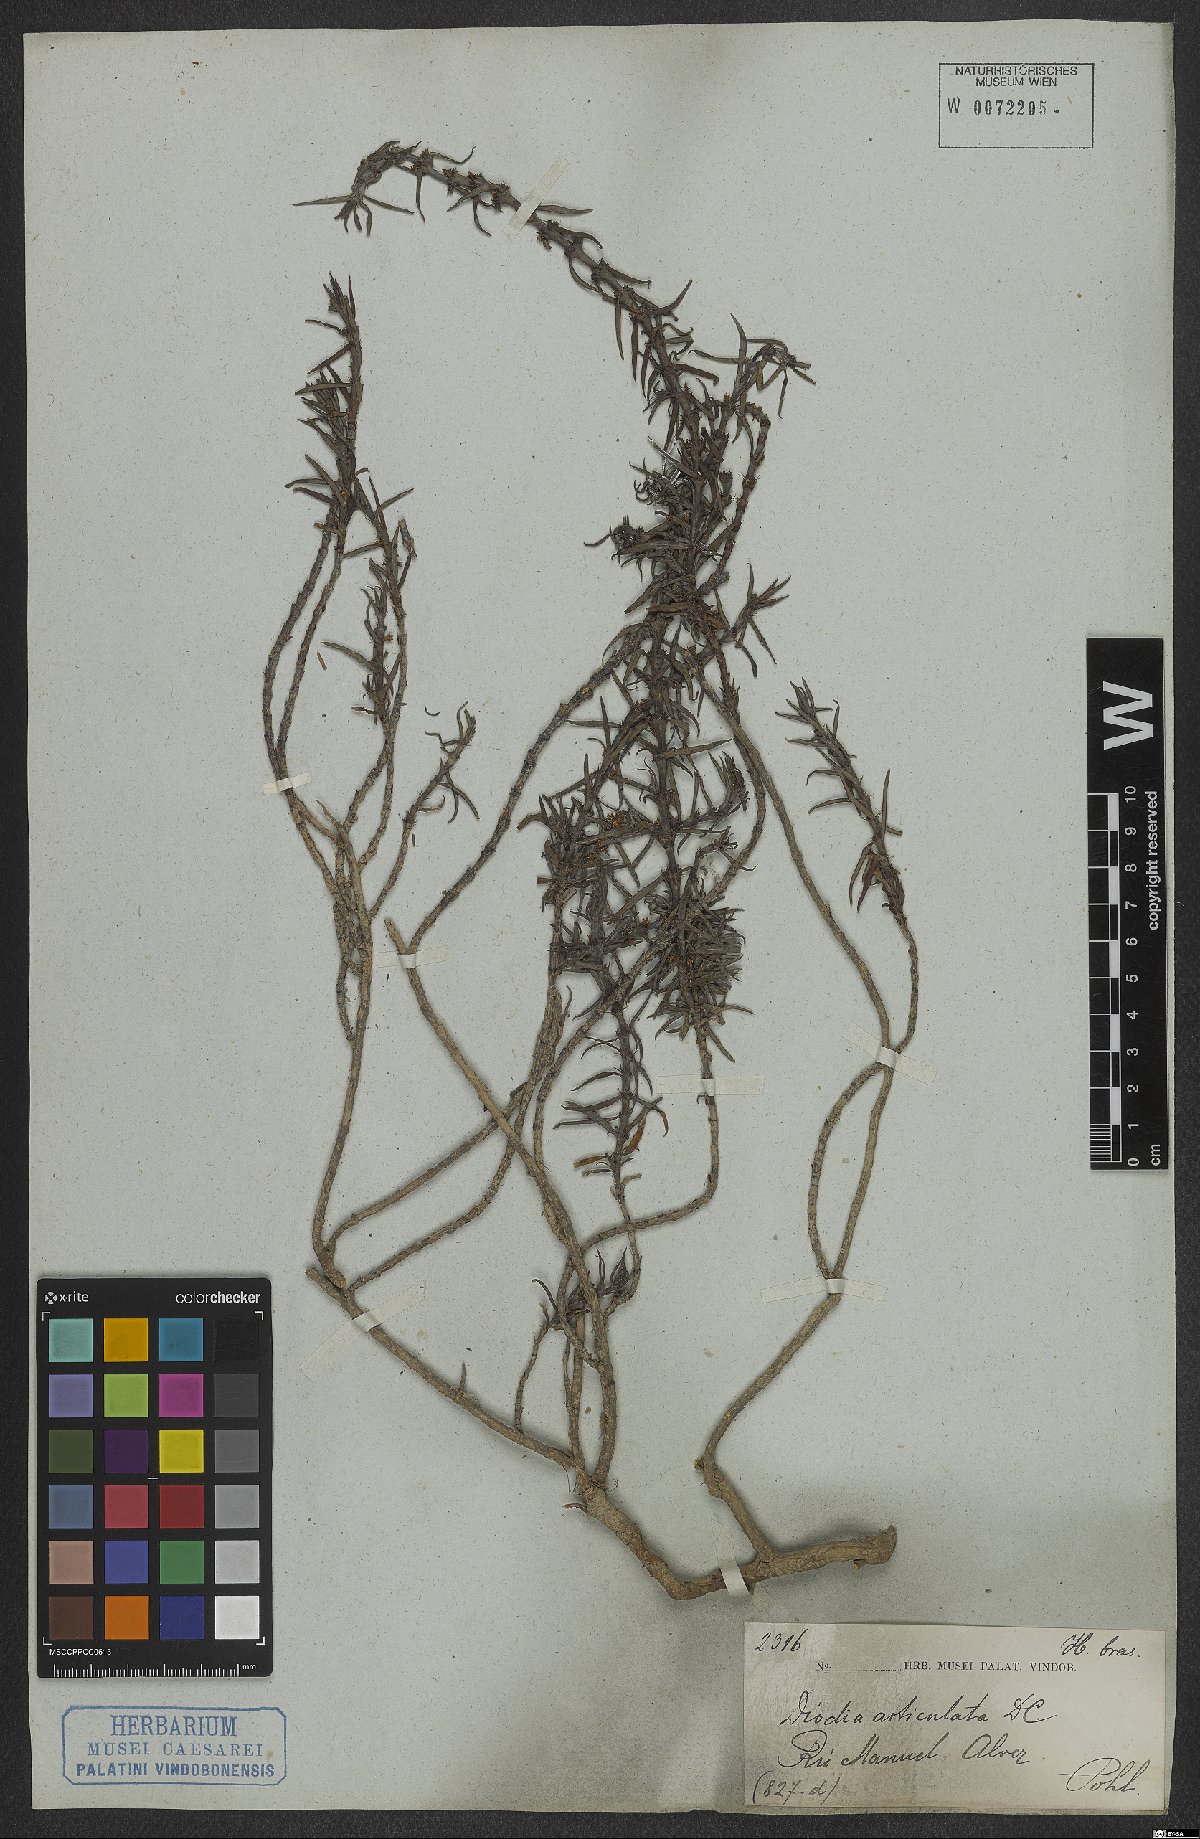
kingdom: Plantae
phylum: Tracheophyta
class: Magnoliopsida
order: Gentianales
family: Rubiaceae
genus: Spermacoce
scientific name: Spermacoce hyssopifolia
